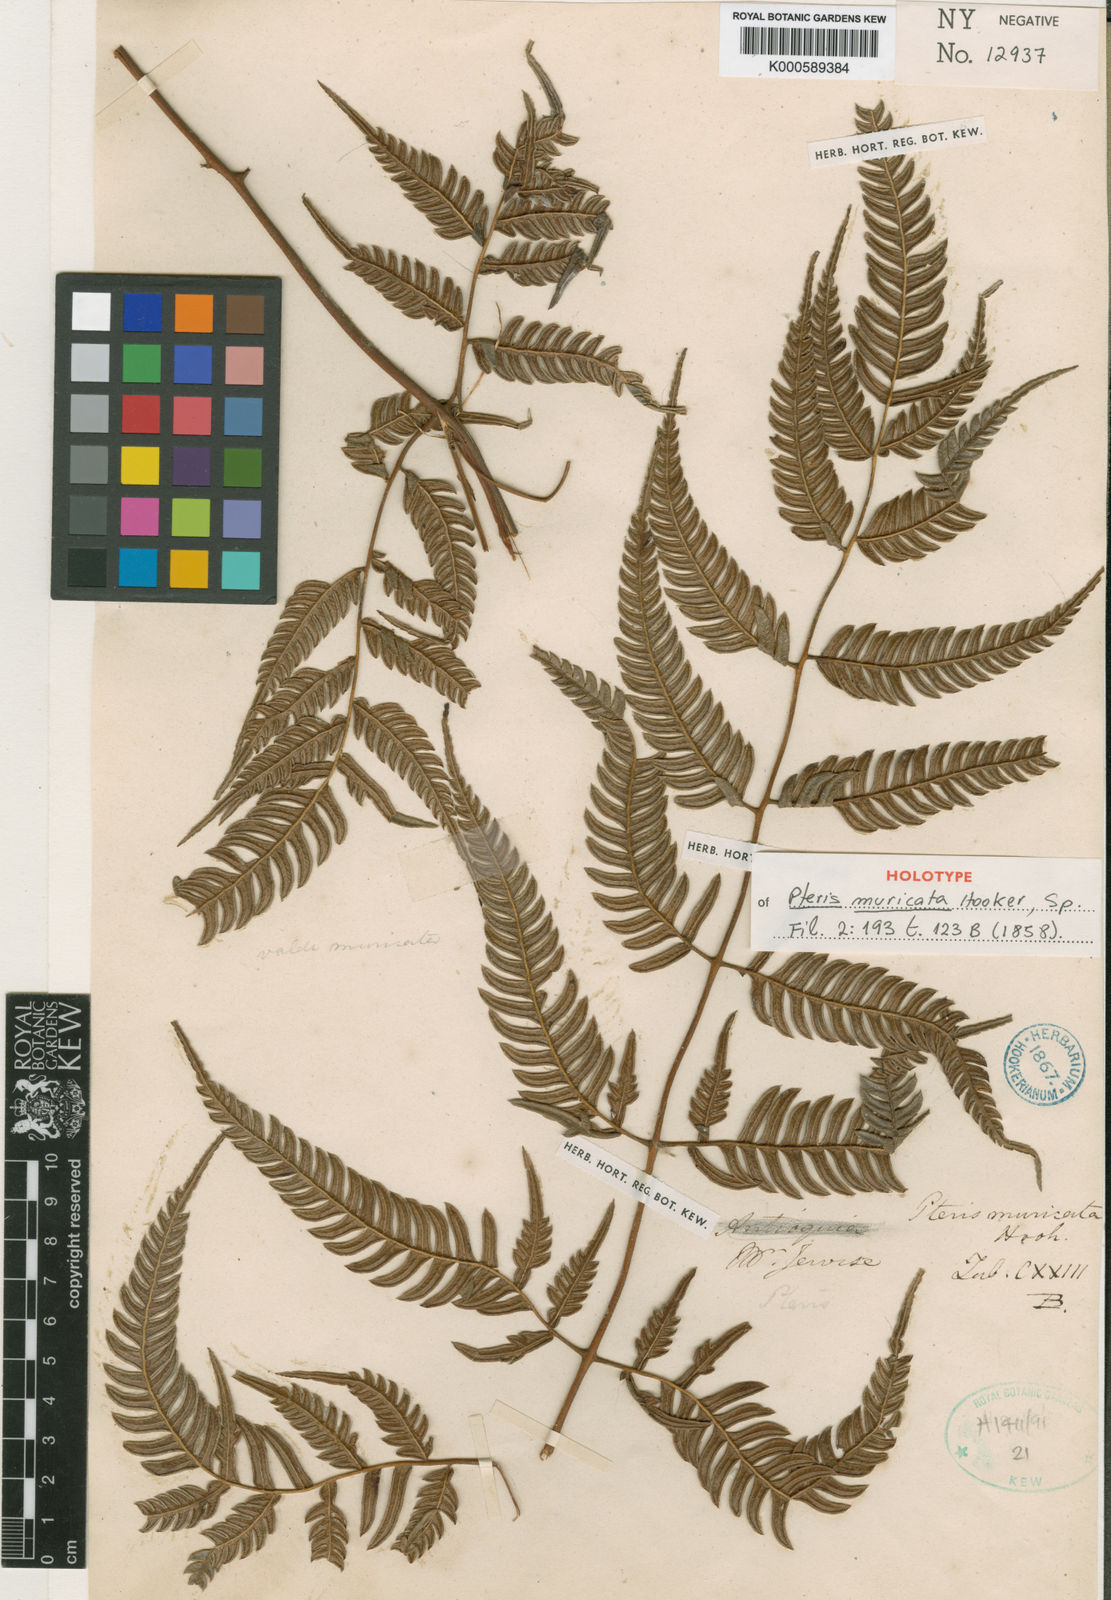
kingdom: Plantae
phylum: Tracheophyta
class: Polypodiopsida
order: Polypodiales
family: Pteridaceae
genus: Pteris
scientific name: Pteris muricata
